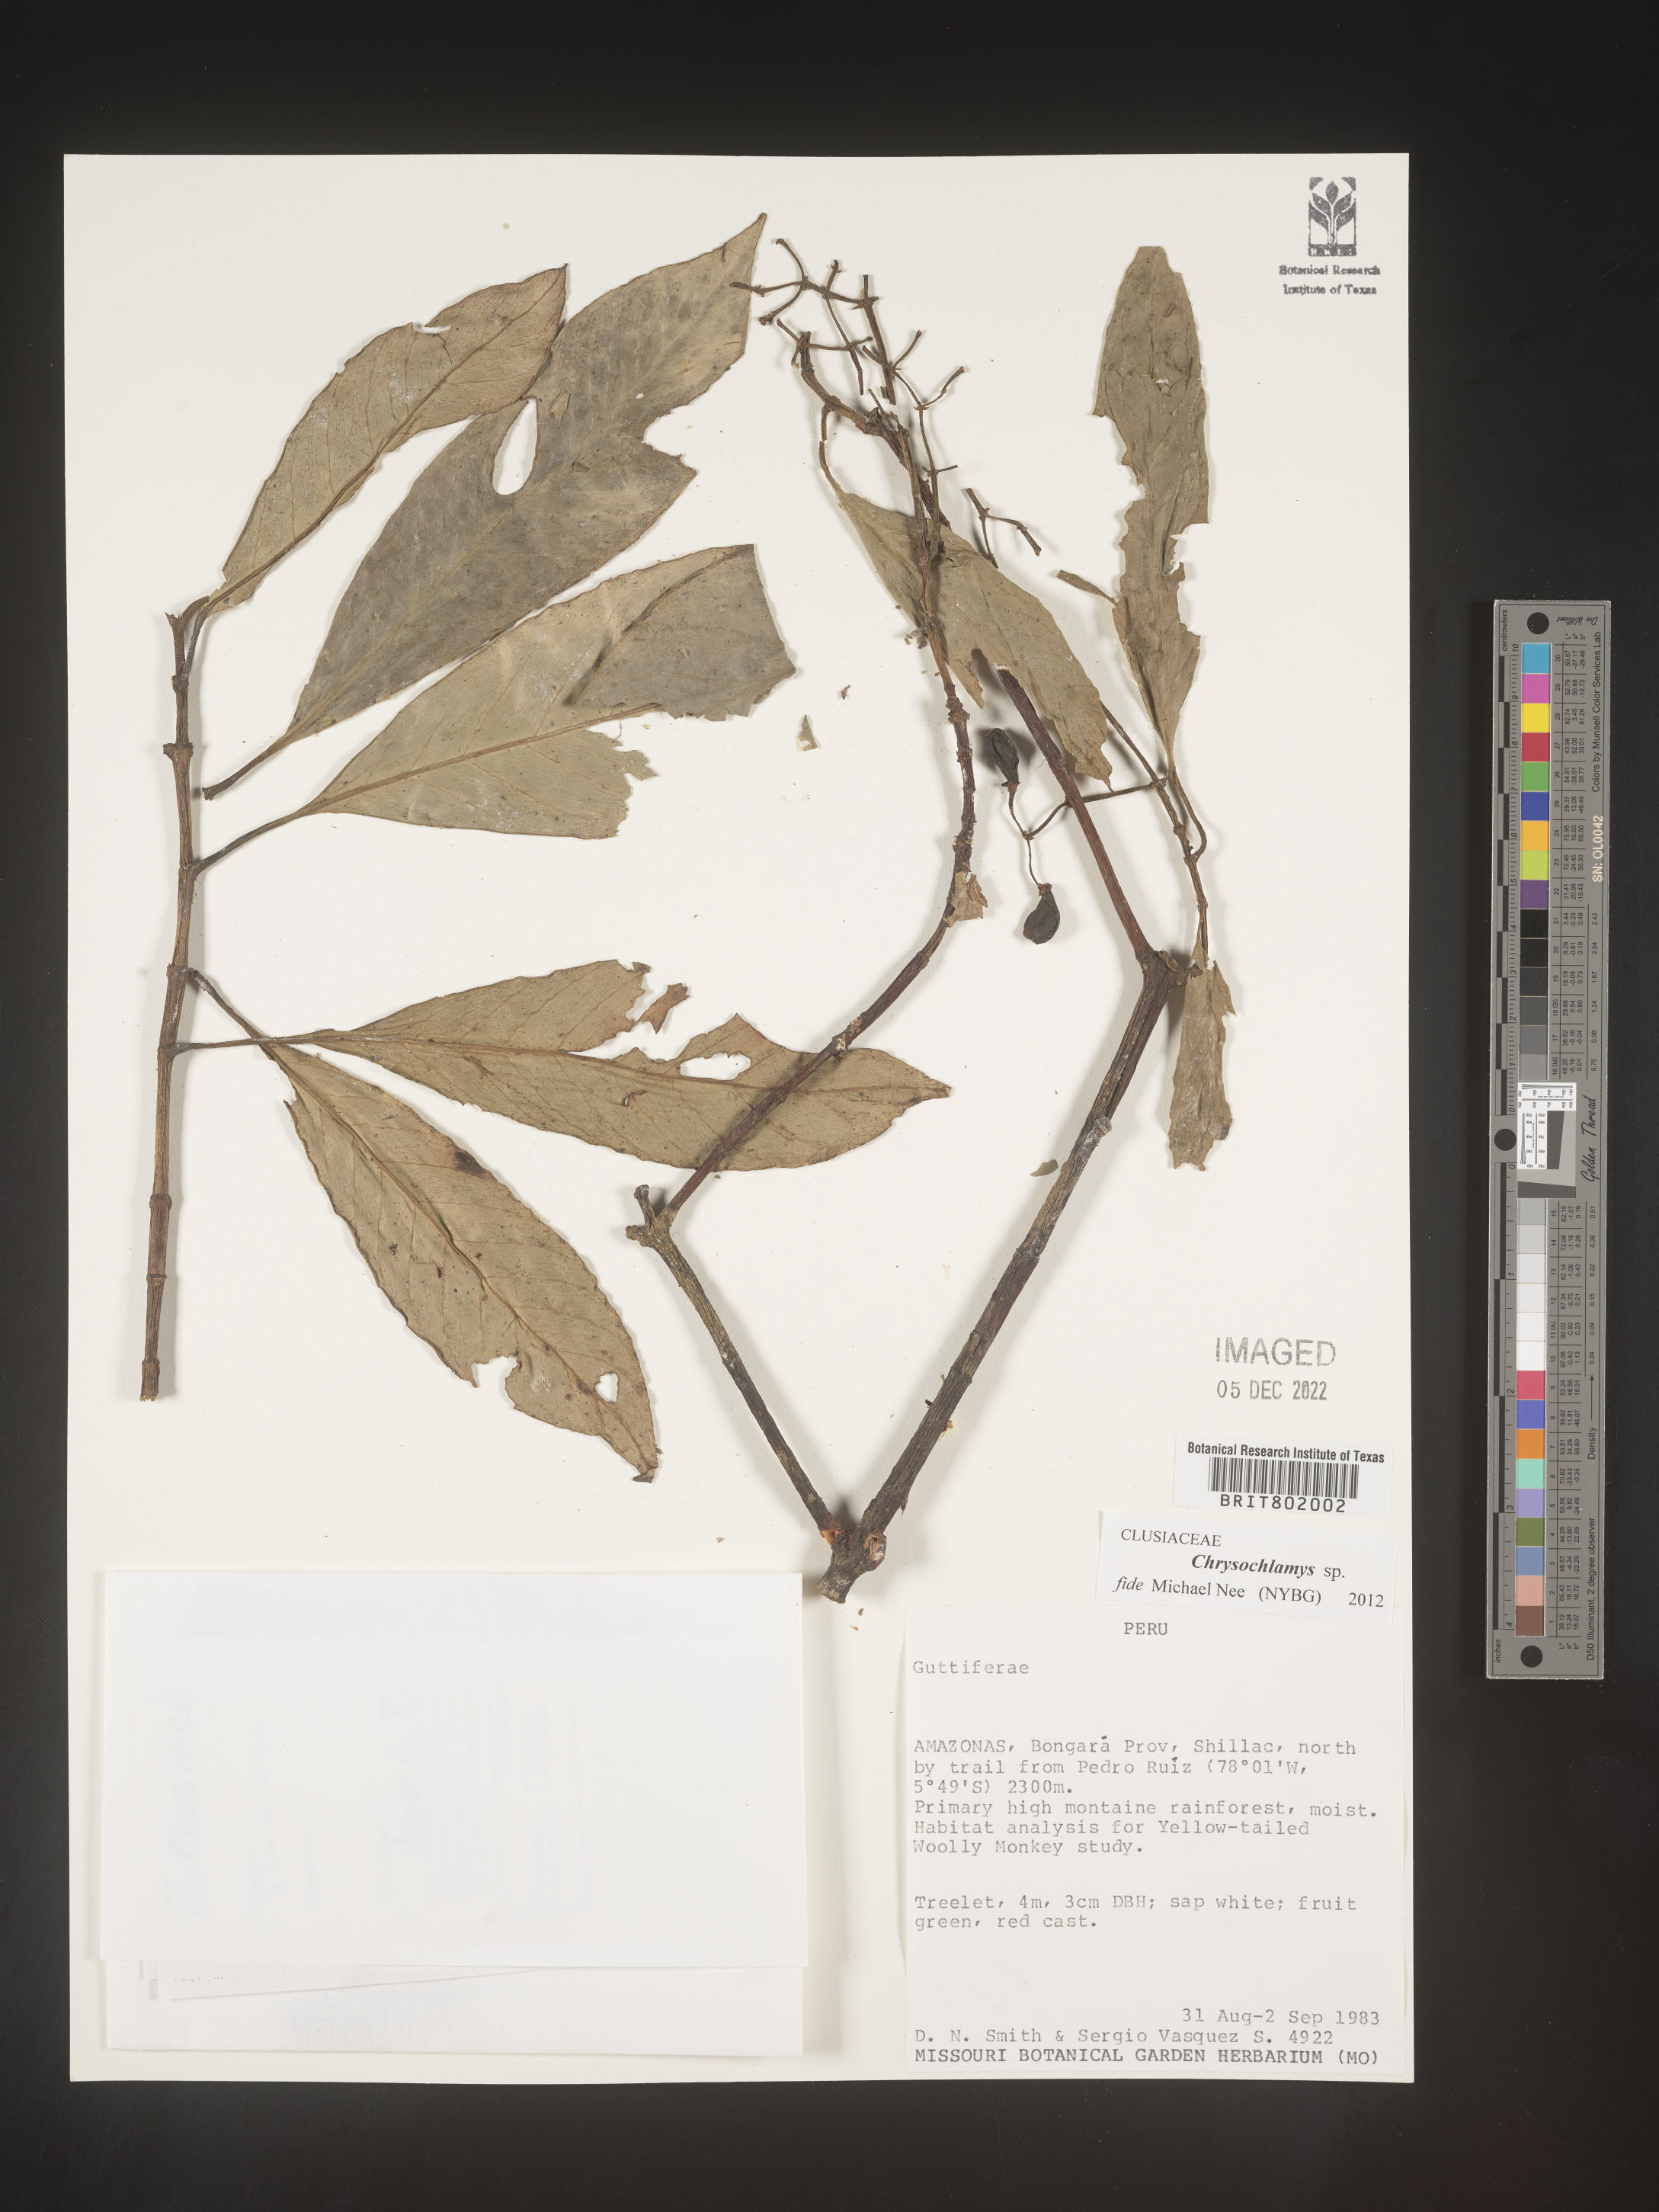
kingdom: Plantae
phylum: Tracheophyta
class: Magnoliopsida
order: Malpighiales
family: Clusiaceae
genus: Chrysochlamys
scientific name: Chrysochlamys
